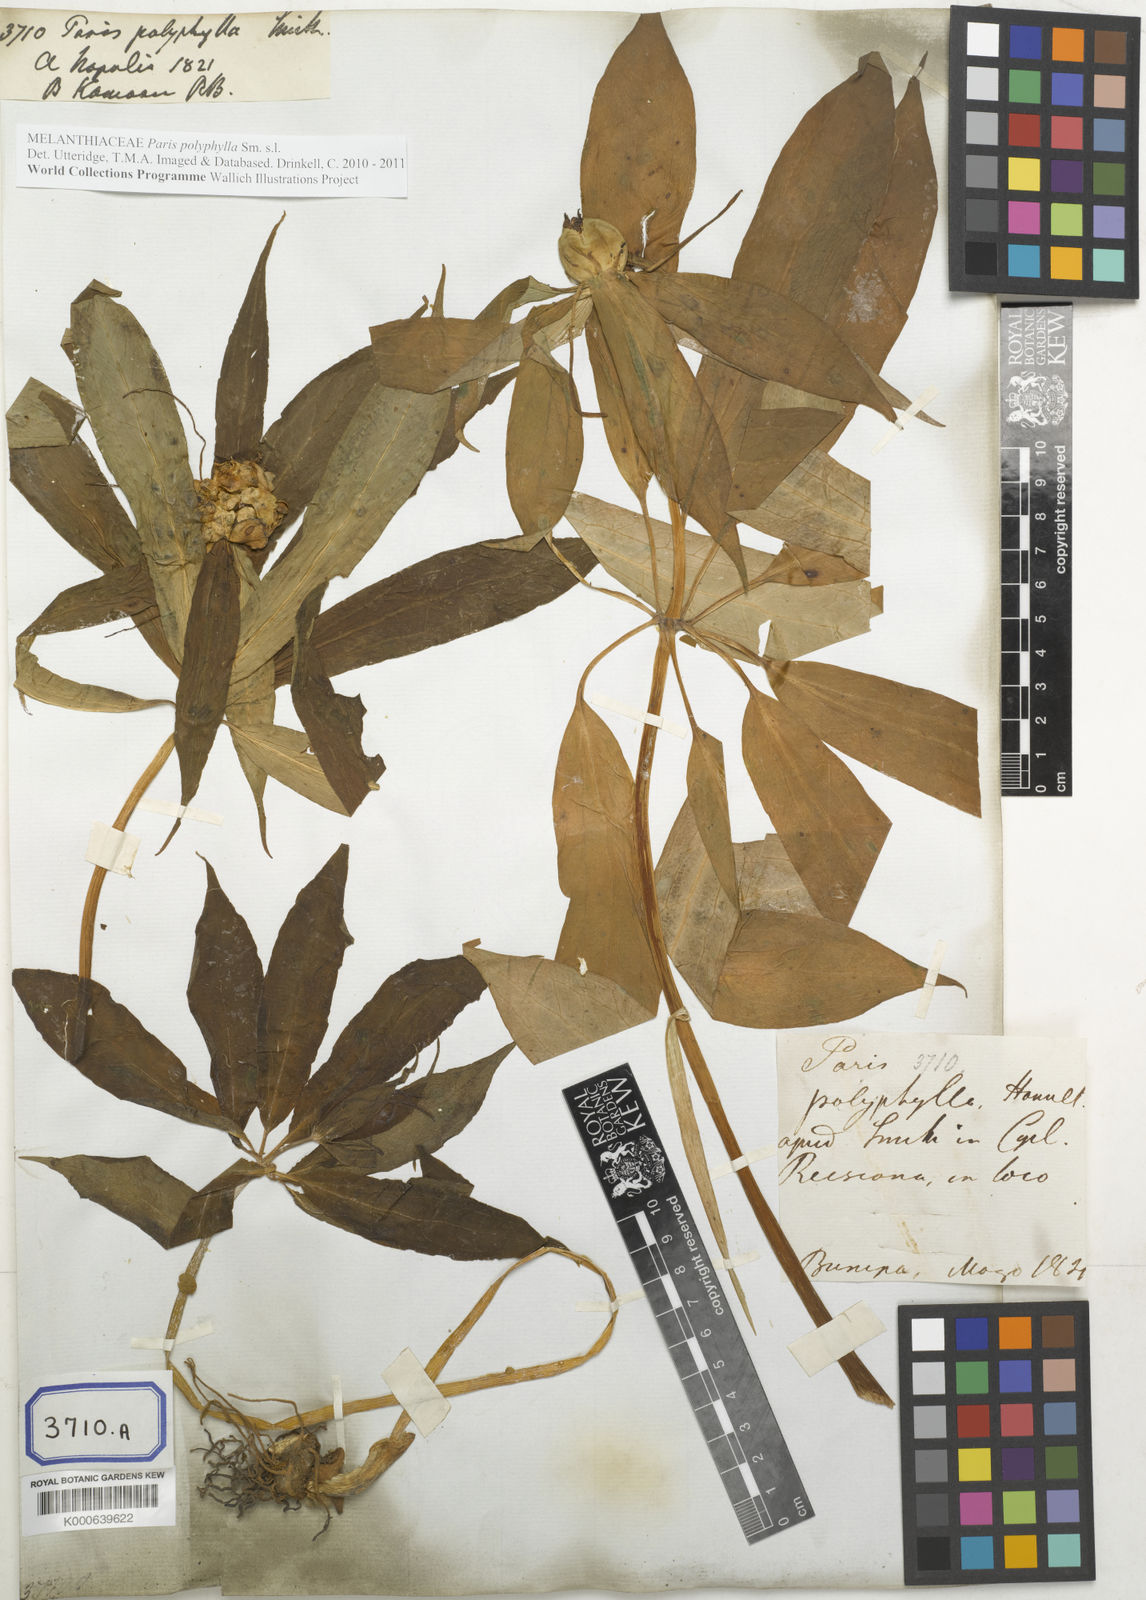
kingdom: Plantae
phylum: Tracheophyta
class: Liliopsida
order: Liliales
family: Melanthiaceae
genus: Paris
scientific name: Paris polyphylla
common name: Love apple
